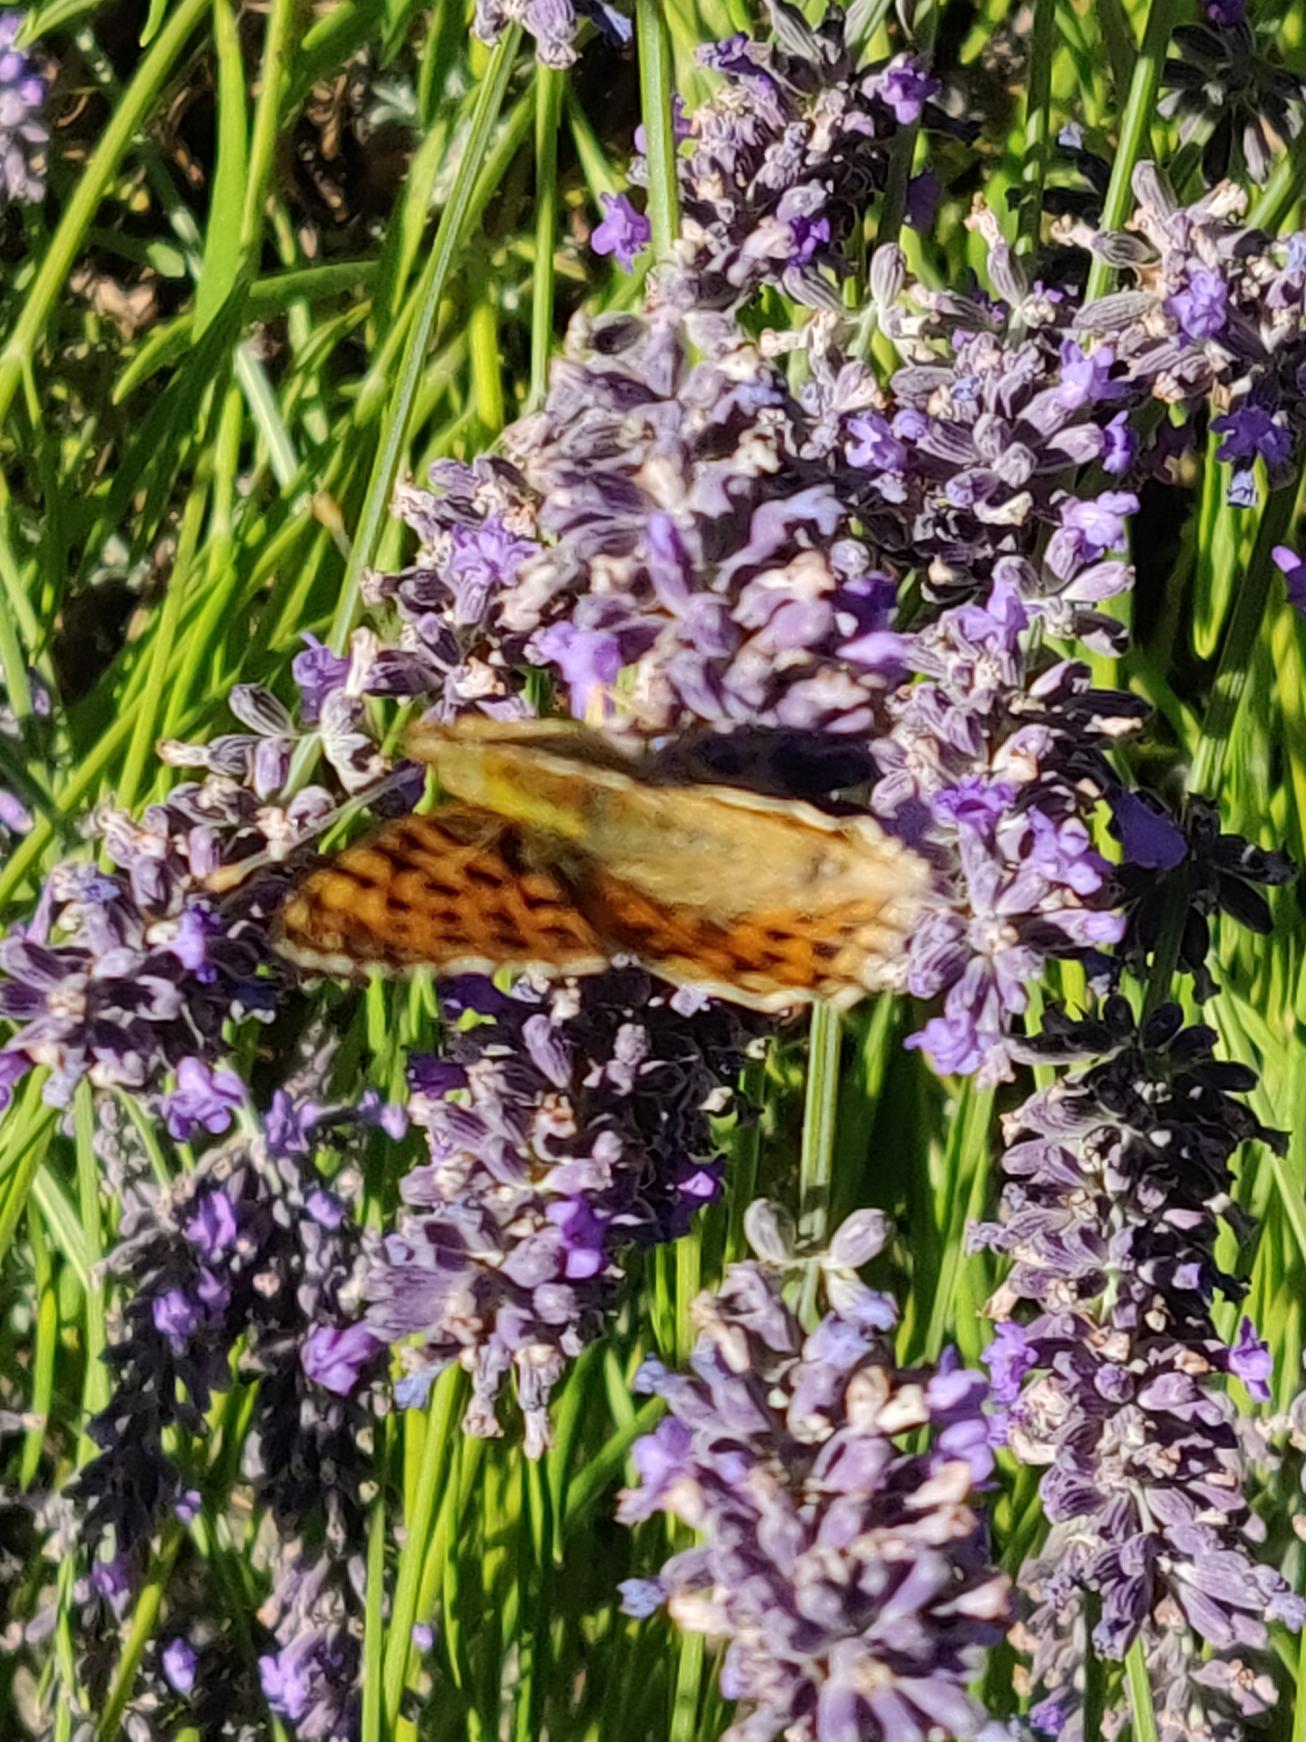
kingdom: Animalia
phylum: Arthropoda
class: Insecta
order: Lepidoptera
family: Nymphalidae
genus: Argynnis
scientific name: Argynnis paphia
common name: Kejserkåbe
